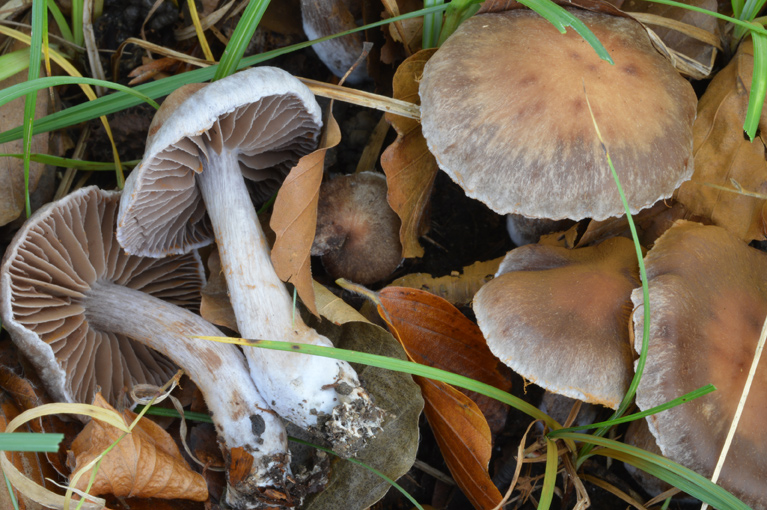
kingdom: Fungi
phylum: Basidiomycota
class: Agaricomycetes
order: Agaricales
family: Cortinariaceae
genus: Cortinarius
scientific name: Cortinarius serratissimus
